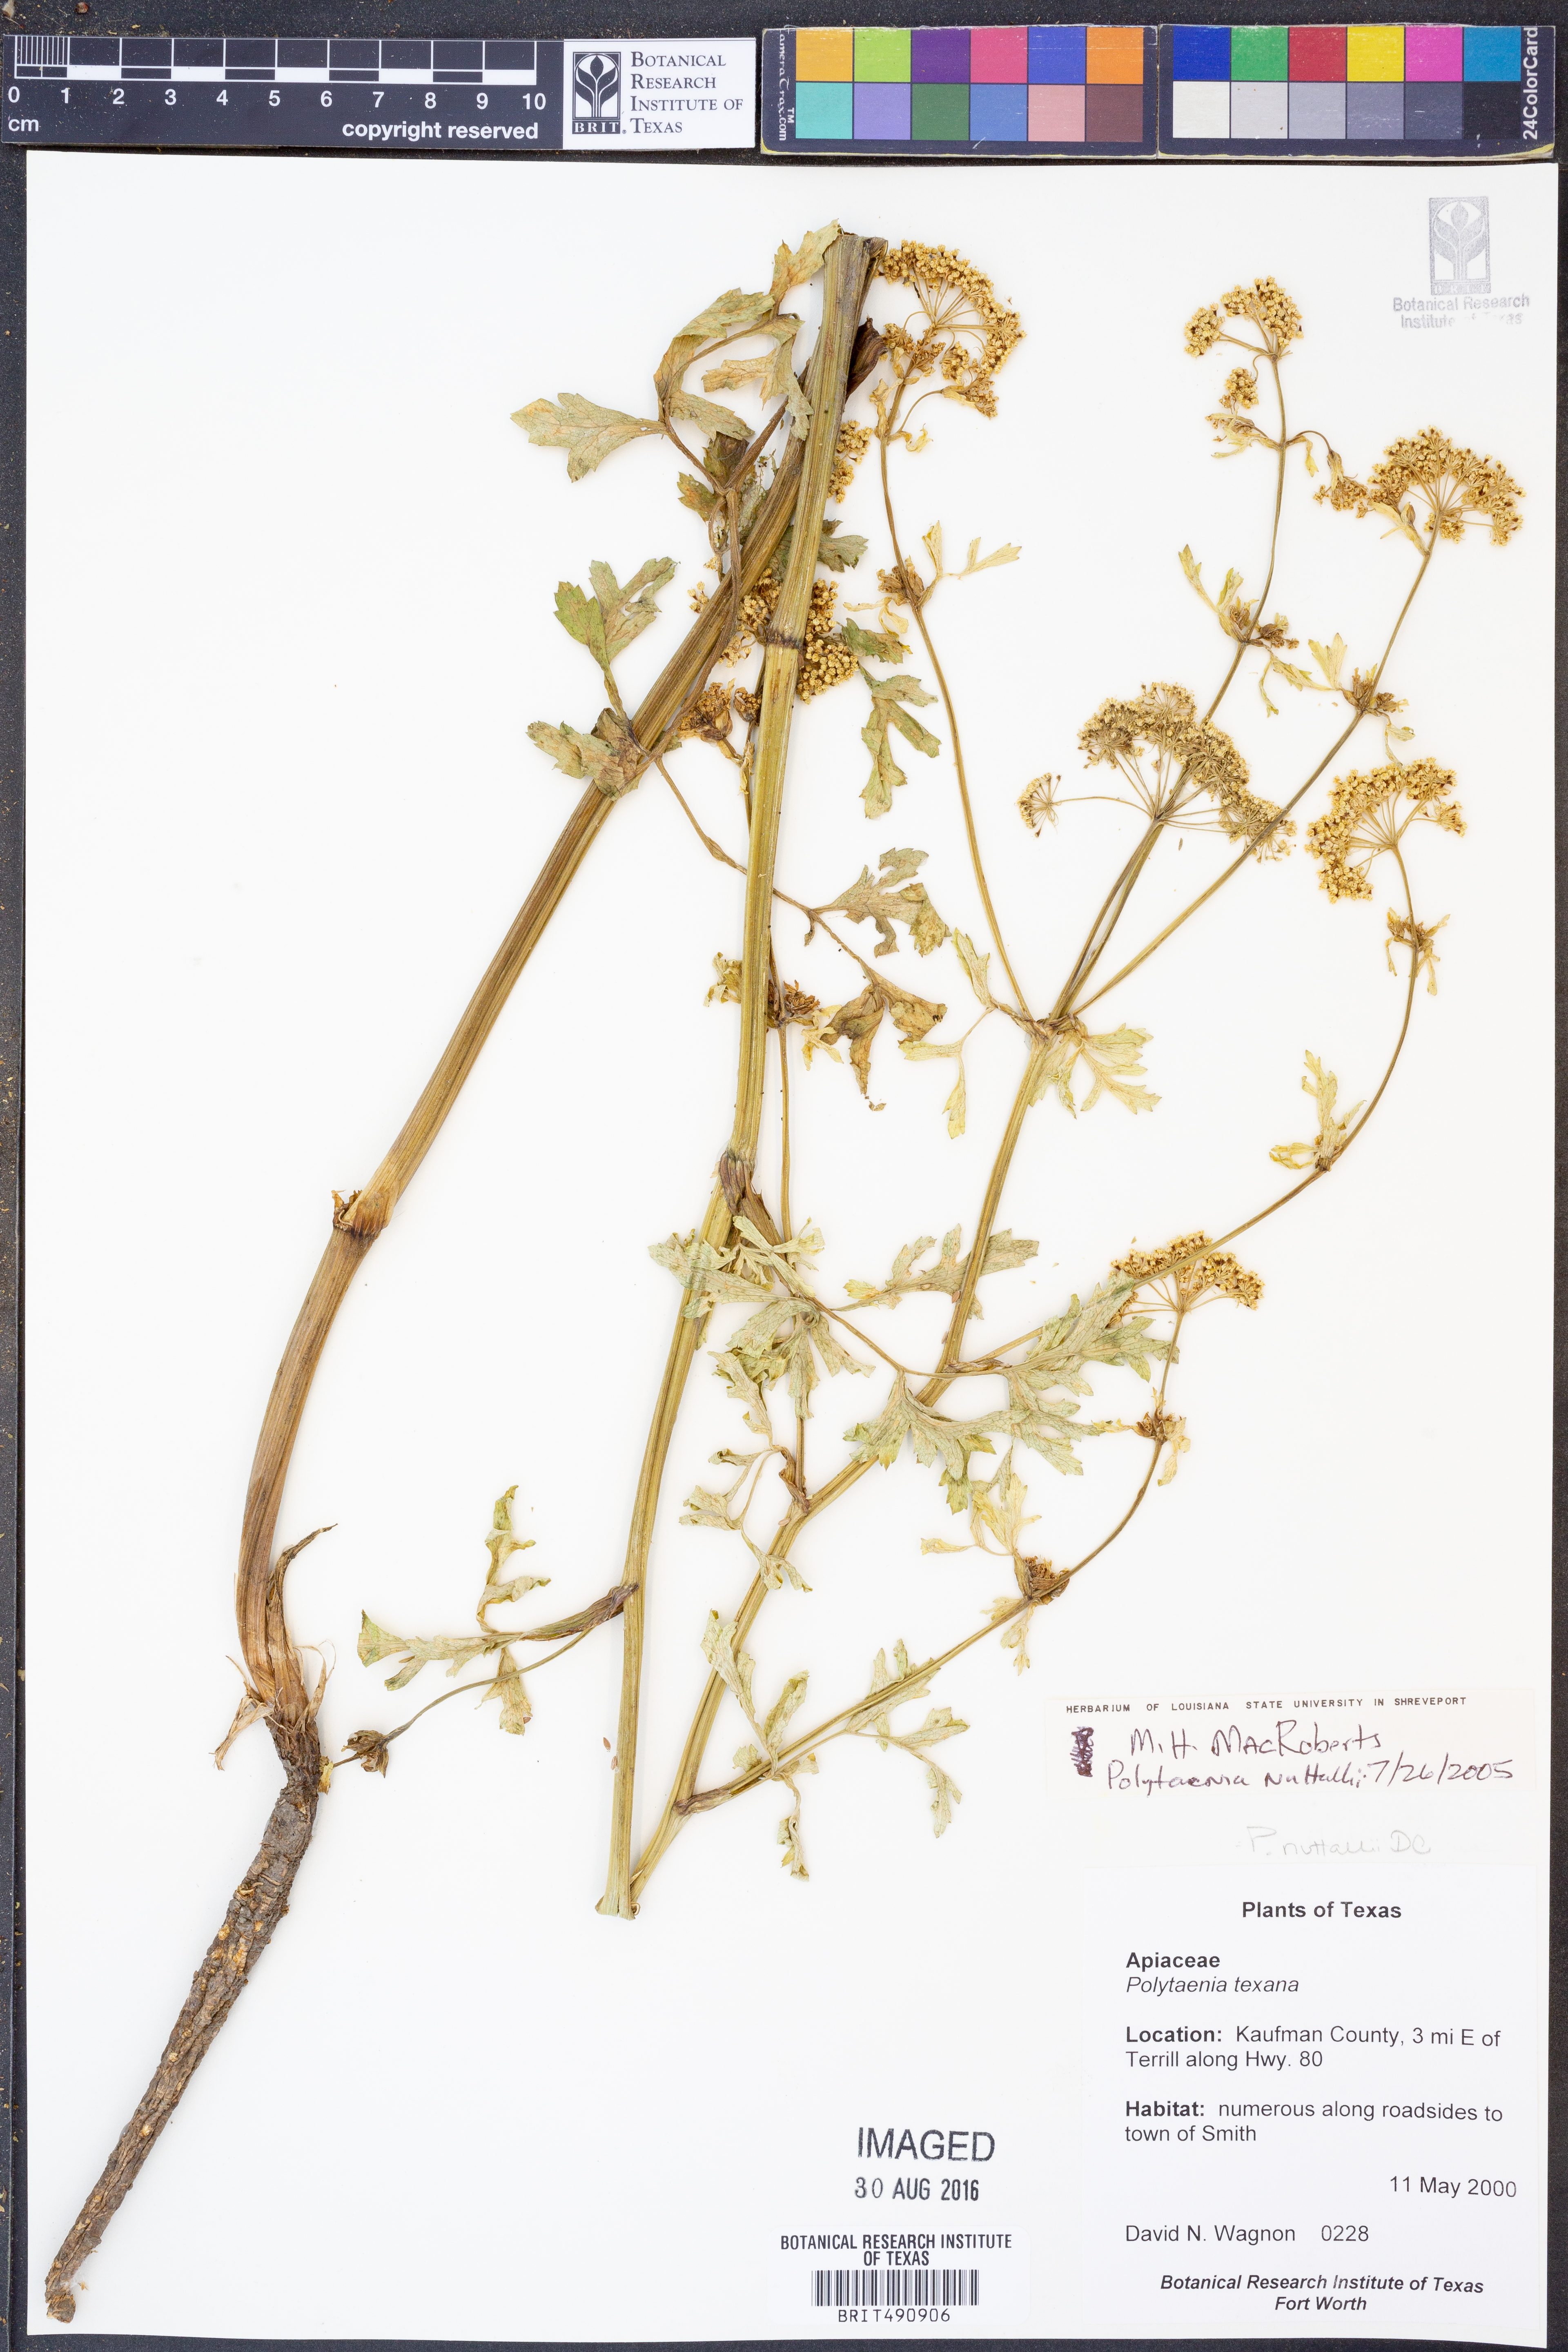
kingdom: Plantae
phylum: Tracheophyta
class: Magnoliopsida
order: Apiales
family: Apiaceae
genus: Polytaenia
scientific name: Polytaenia nuttallii
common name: Prairie-parsley
